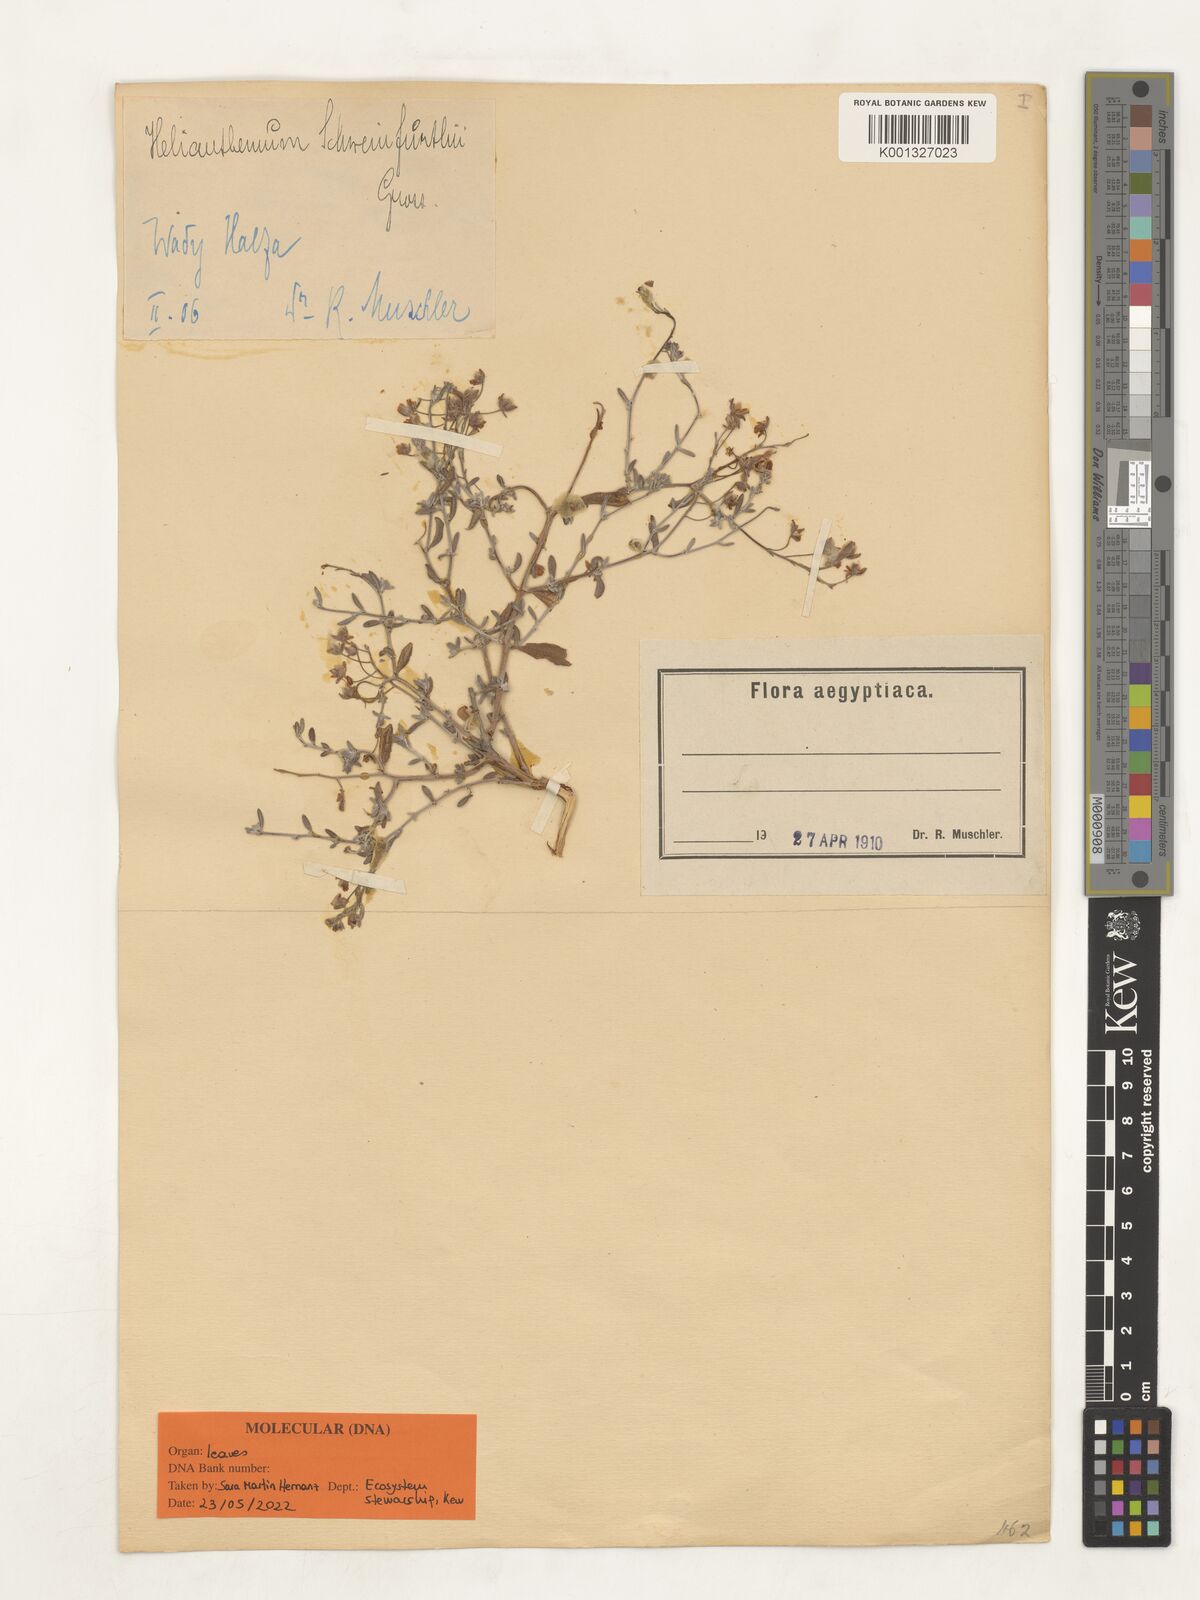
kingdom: Plantae
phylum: Tracheophyta
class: Magnoliopsida
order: Malvales
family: Cistaceae
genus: Helianthemum
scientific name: Helianthemum schweinfurthii
